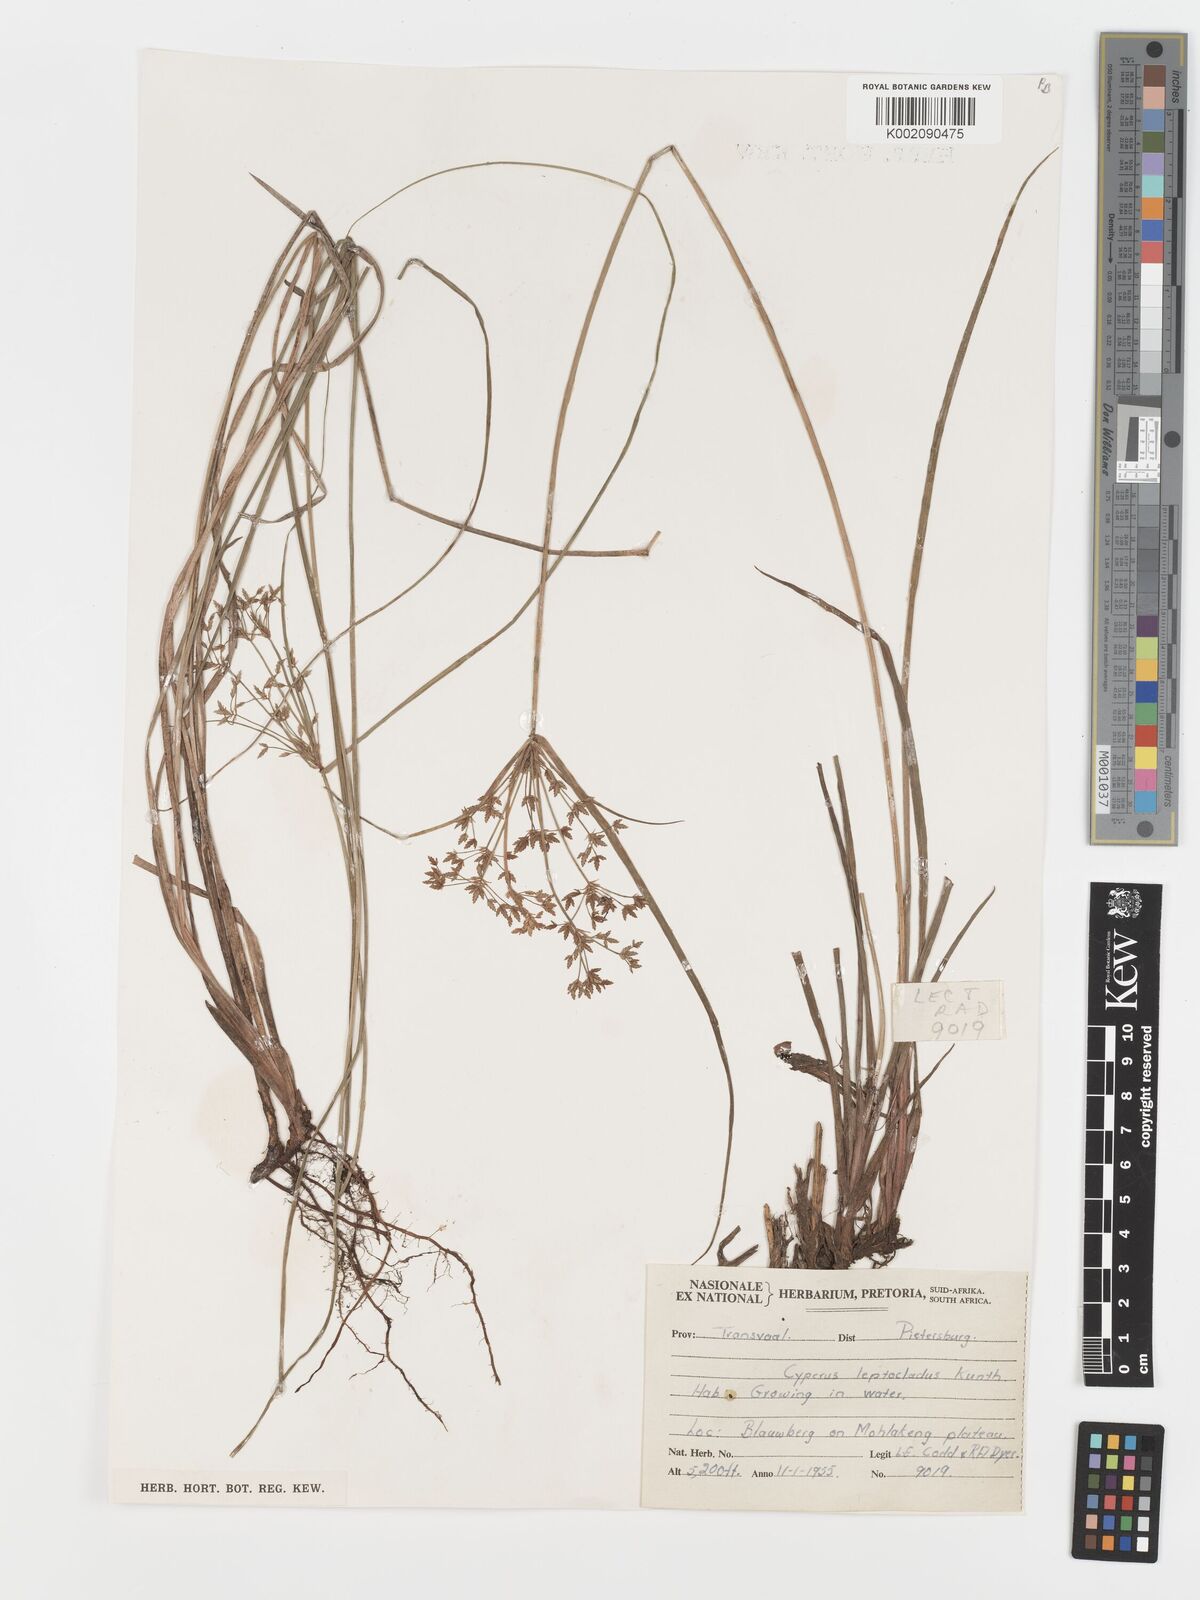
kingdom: Plantae
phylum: Tracheophyta
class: Liliopsida
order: Poales
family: Cyperaceae
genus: Cyperus
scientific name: Cyperus sphaerospermus
